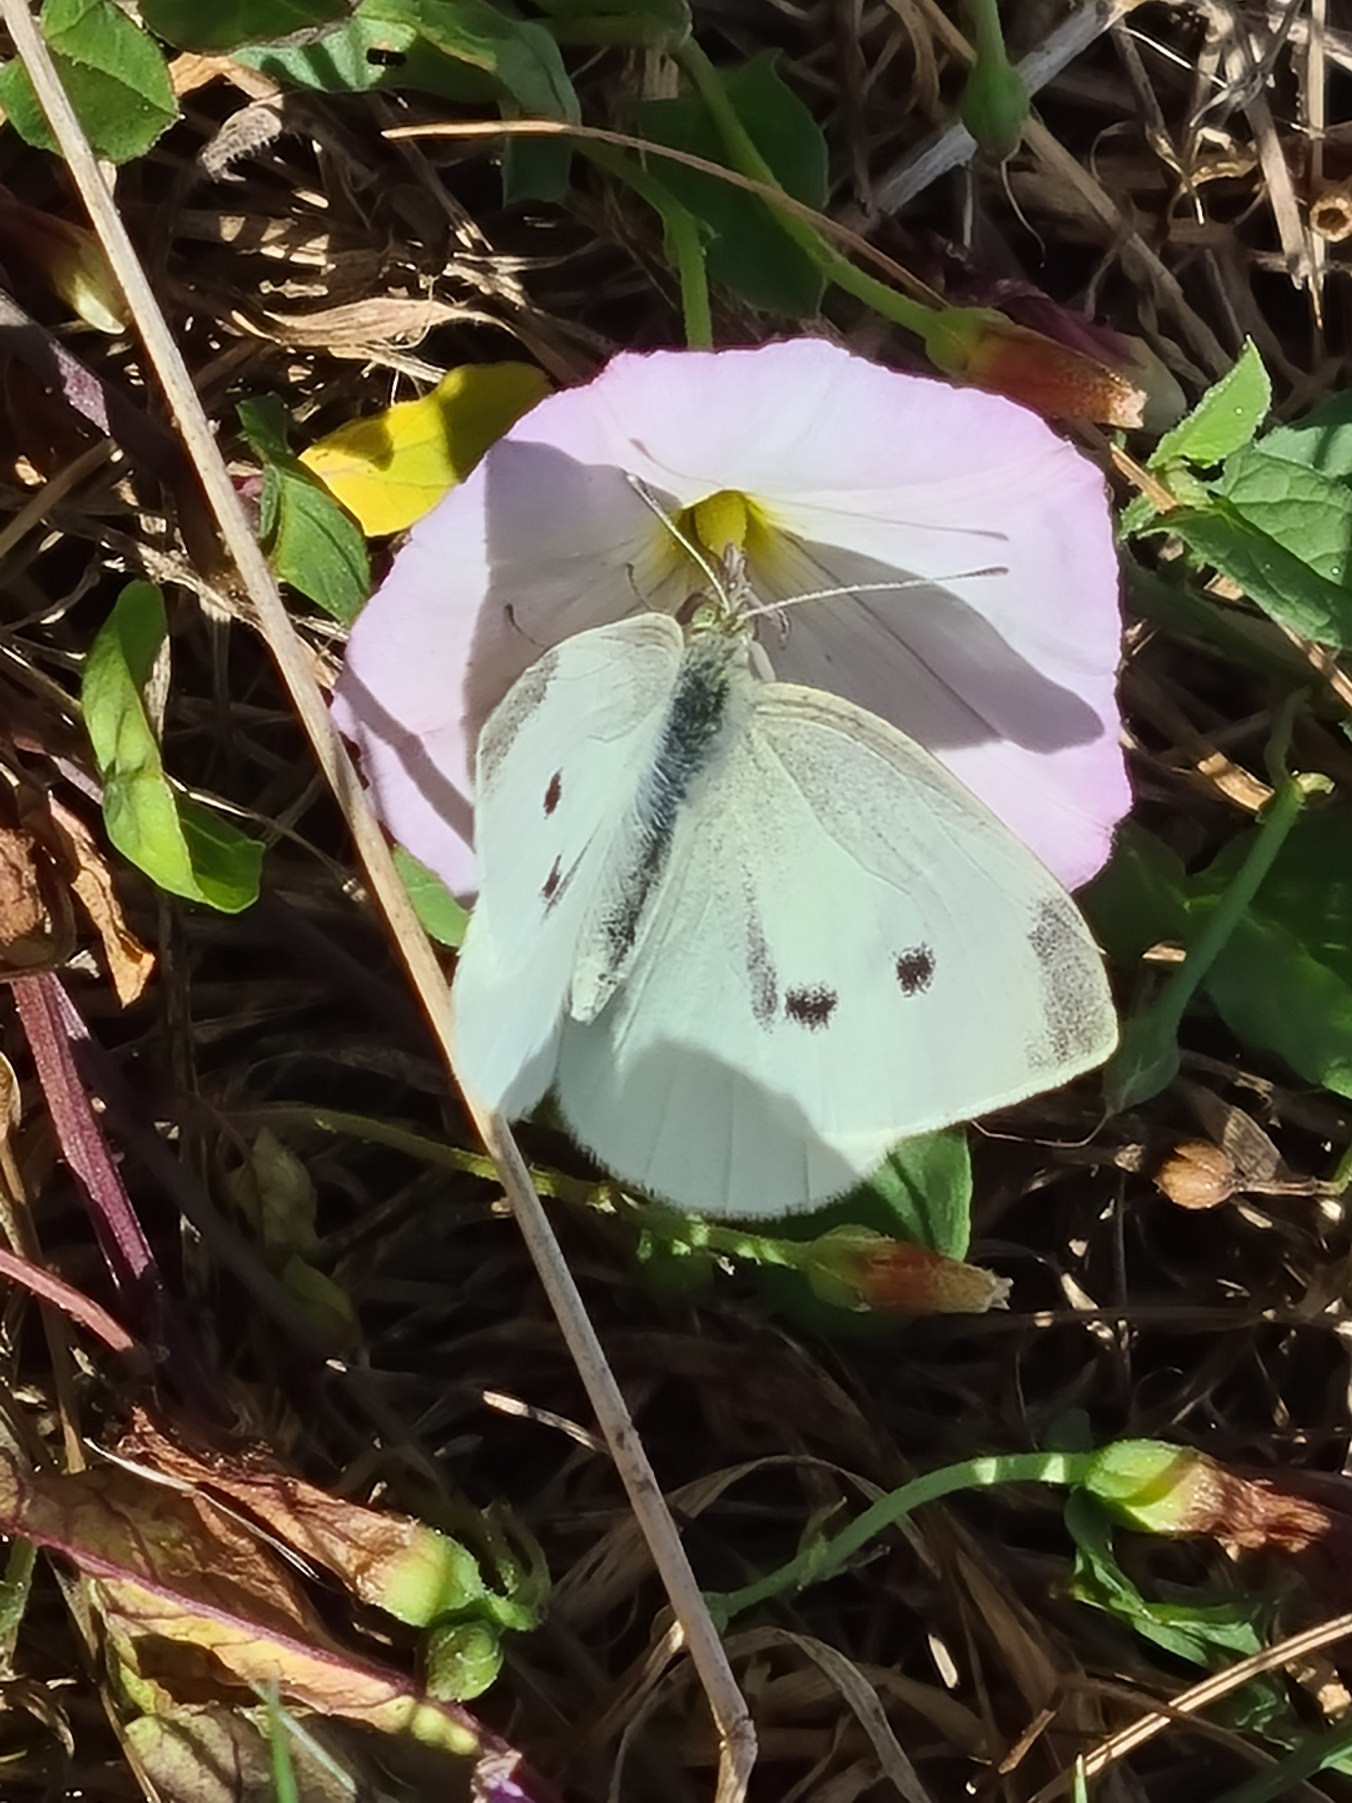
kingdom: Animalia
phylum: Arthropoda
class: Insecta
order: Lepidoptera
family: Pieridae
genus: Pieris
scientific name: Pieris rapae
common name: Lille kålsommerfugl
